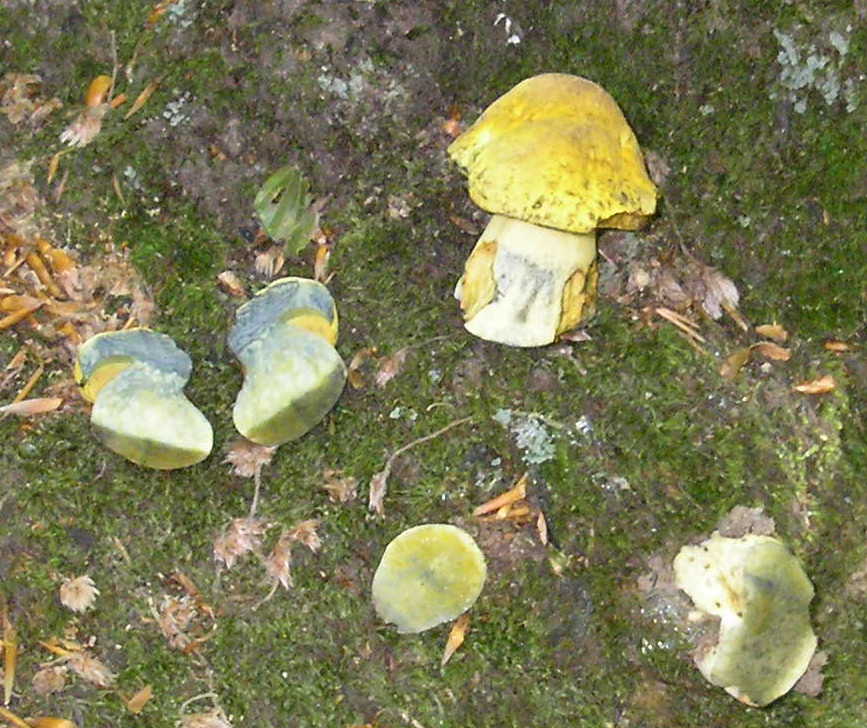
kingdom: Fungi
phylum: Basidiomycota
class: Agaricomycetes
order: Boletales
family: Boletaceae
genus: Neoboletus
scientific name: Neoboletus praestigiator
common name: gul indigorørhat
